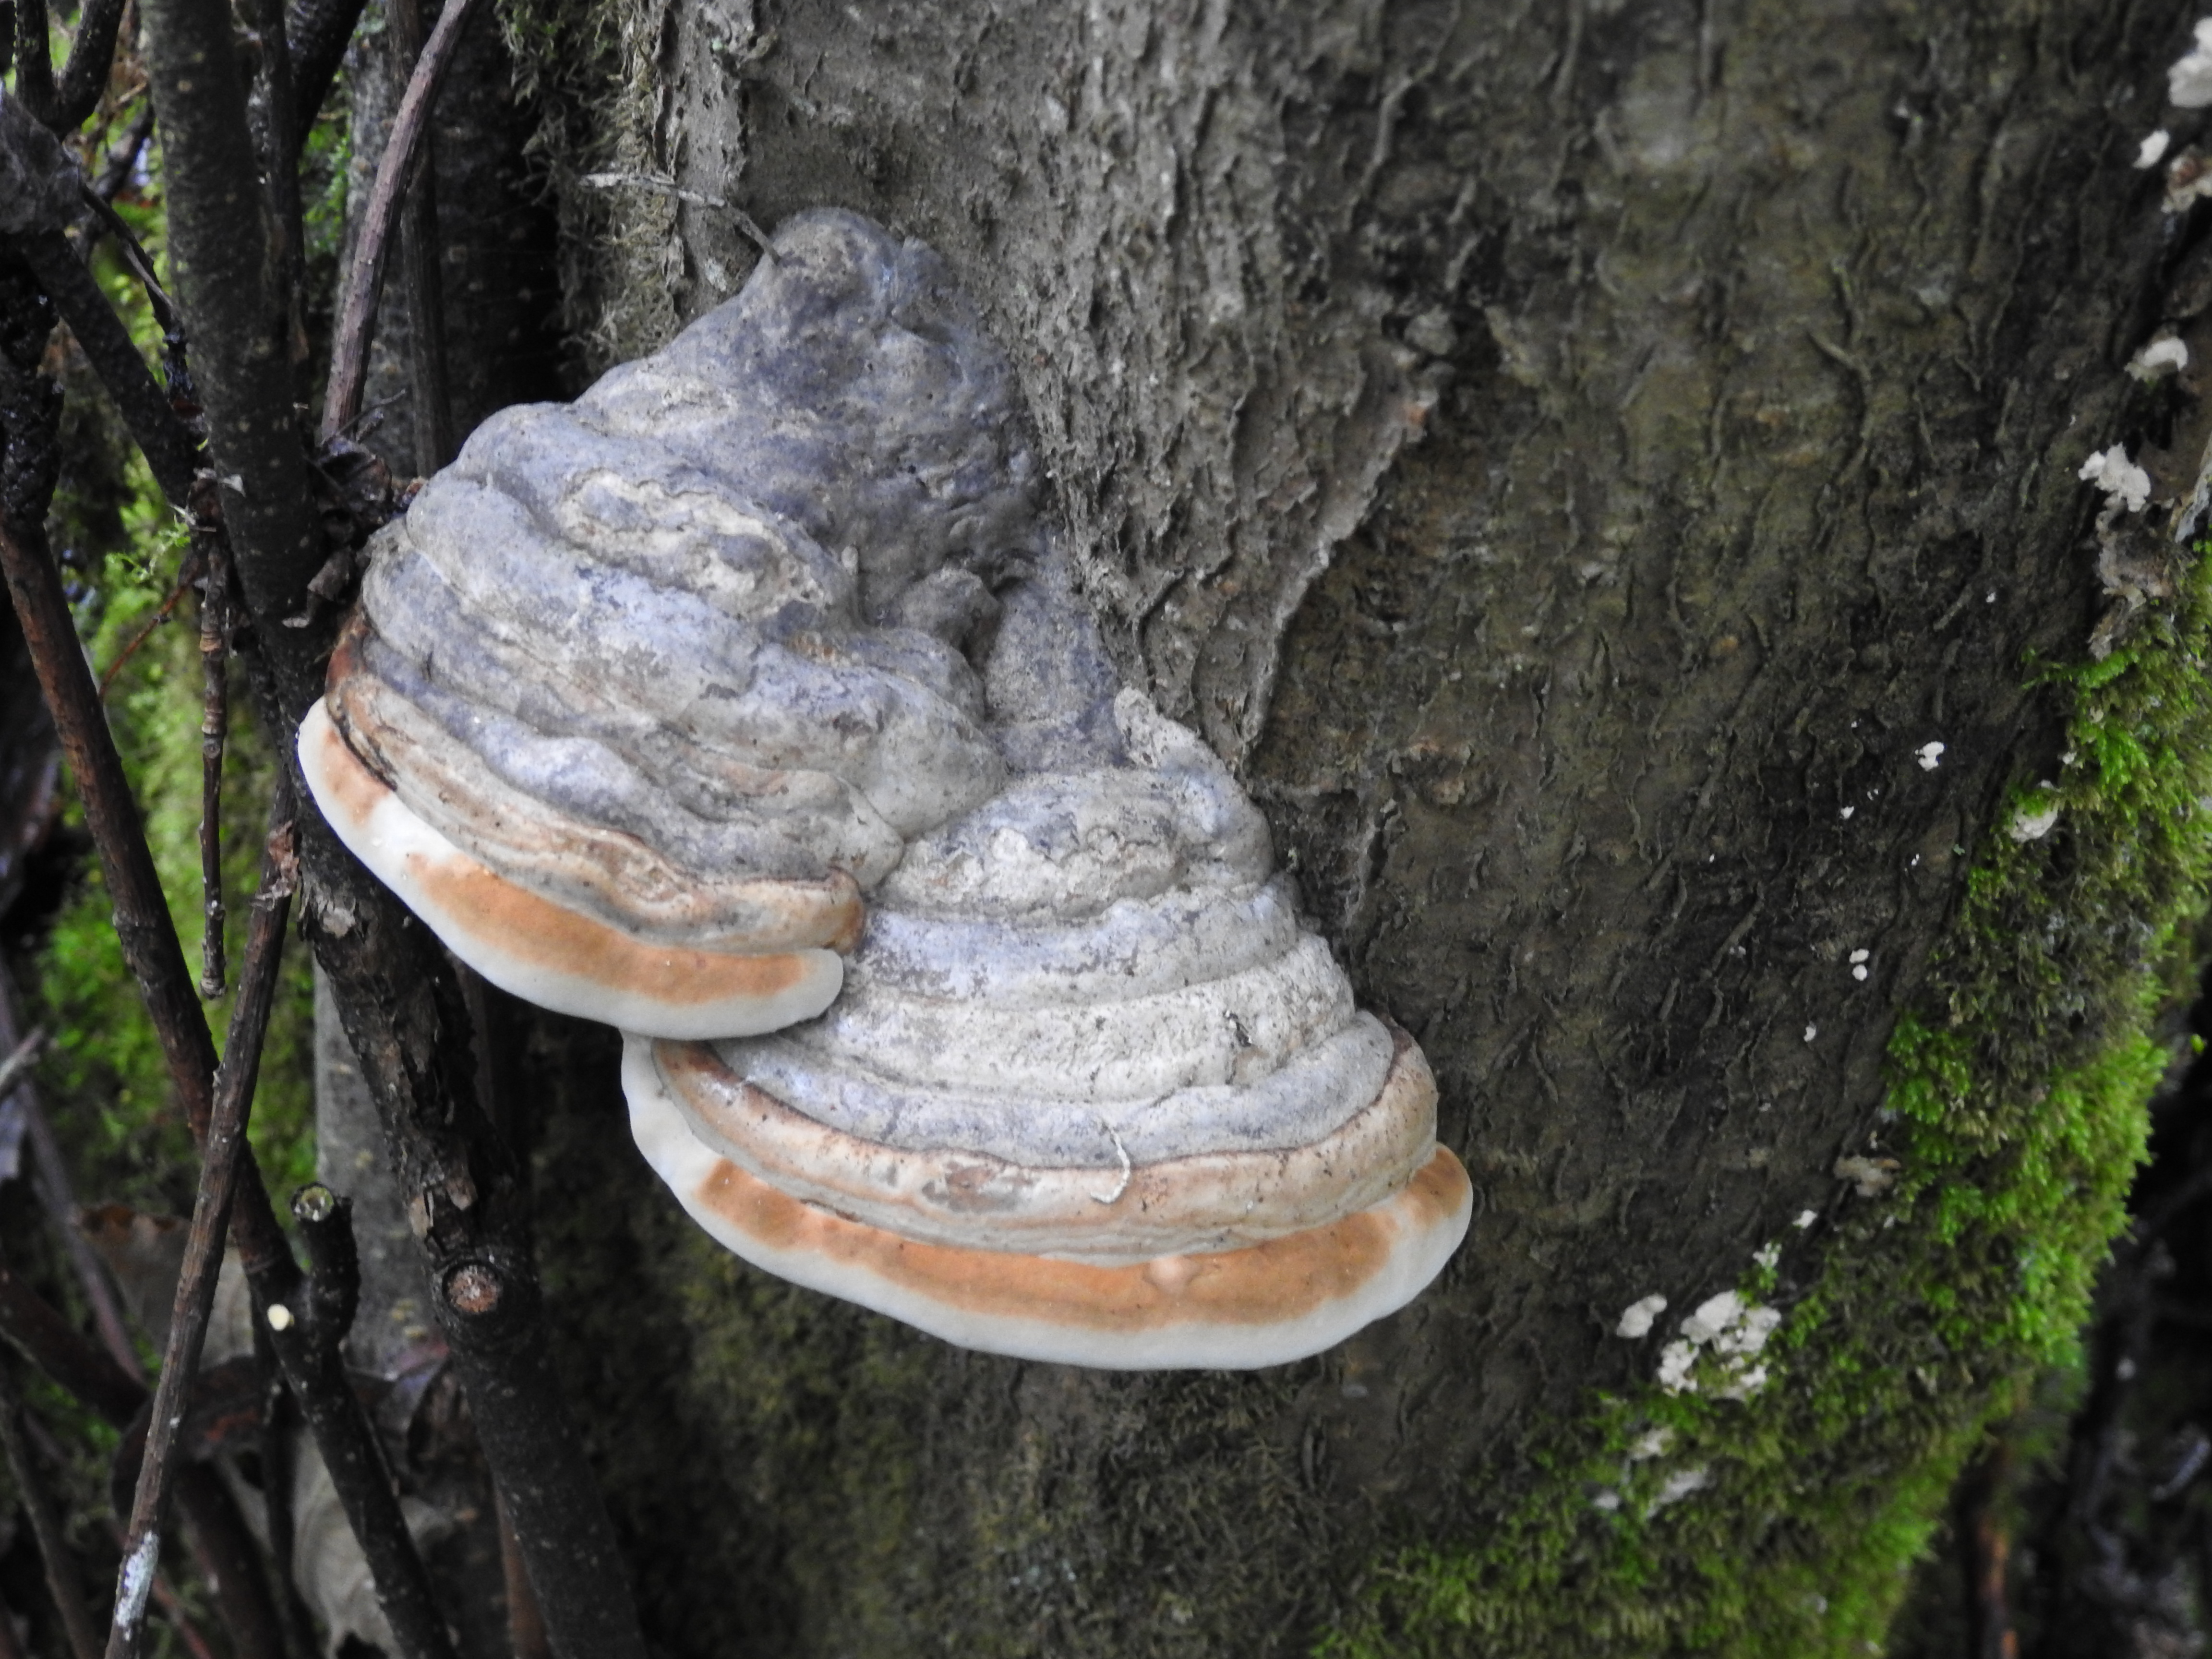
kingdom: Fungi
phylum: Basidiomycota
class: Agaricomycetes
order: Polyporales
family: Polyporaceae
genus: Fomes
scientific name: Fomes fomentarius
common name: Hoof fungus
